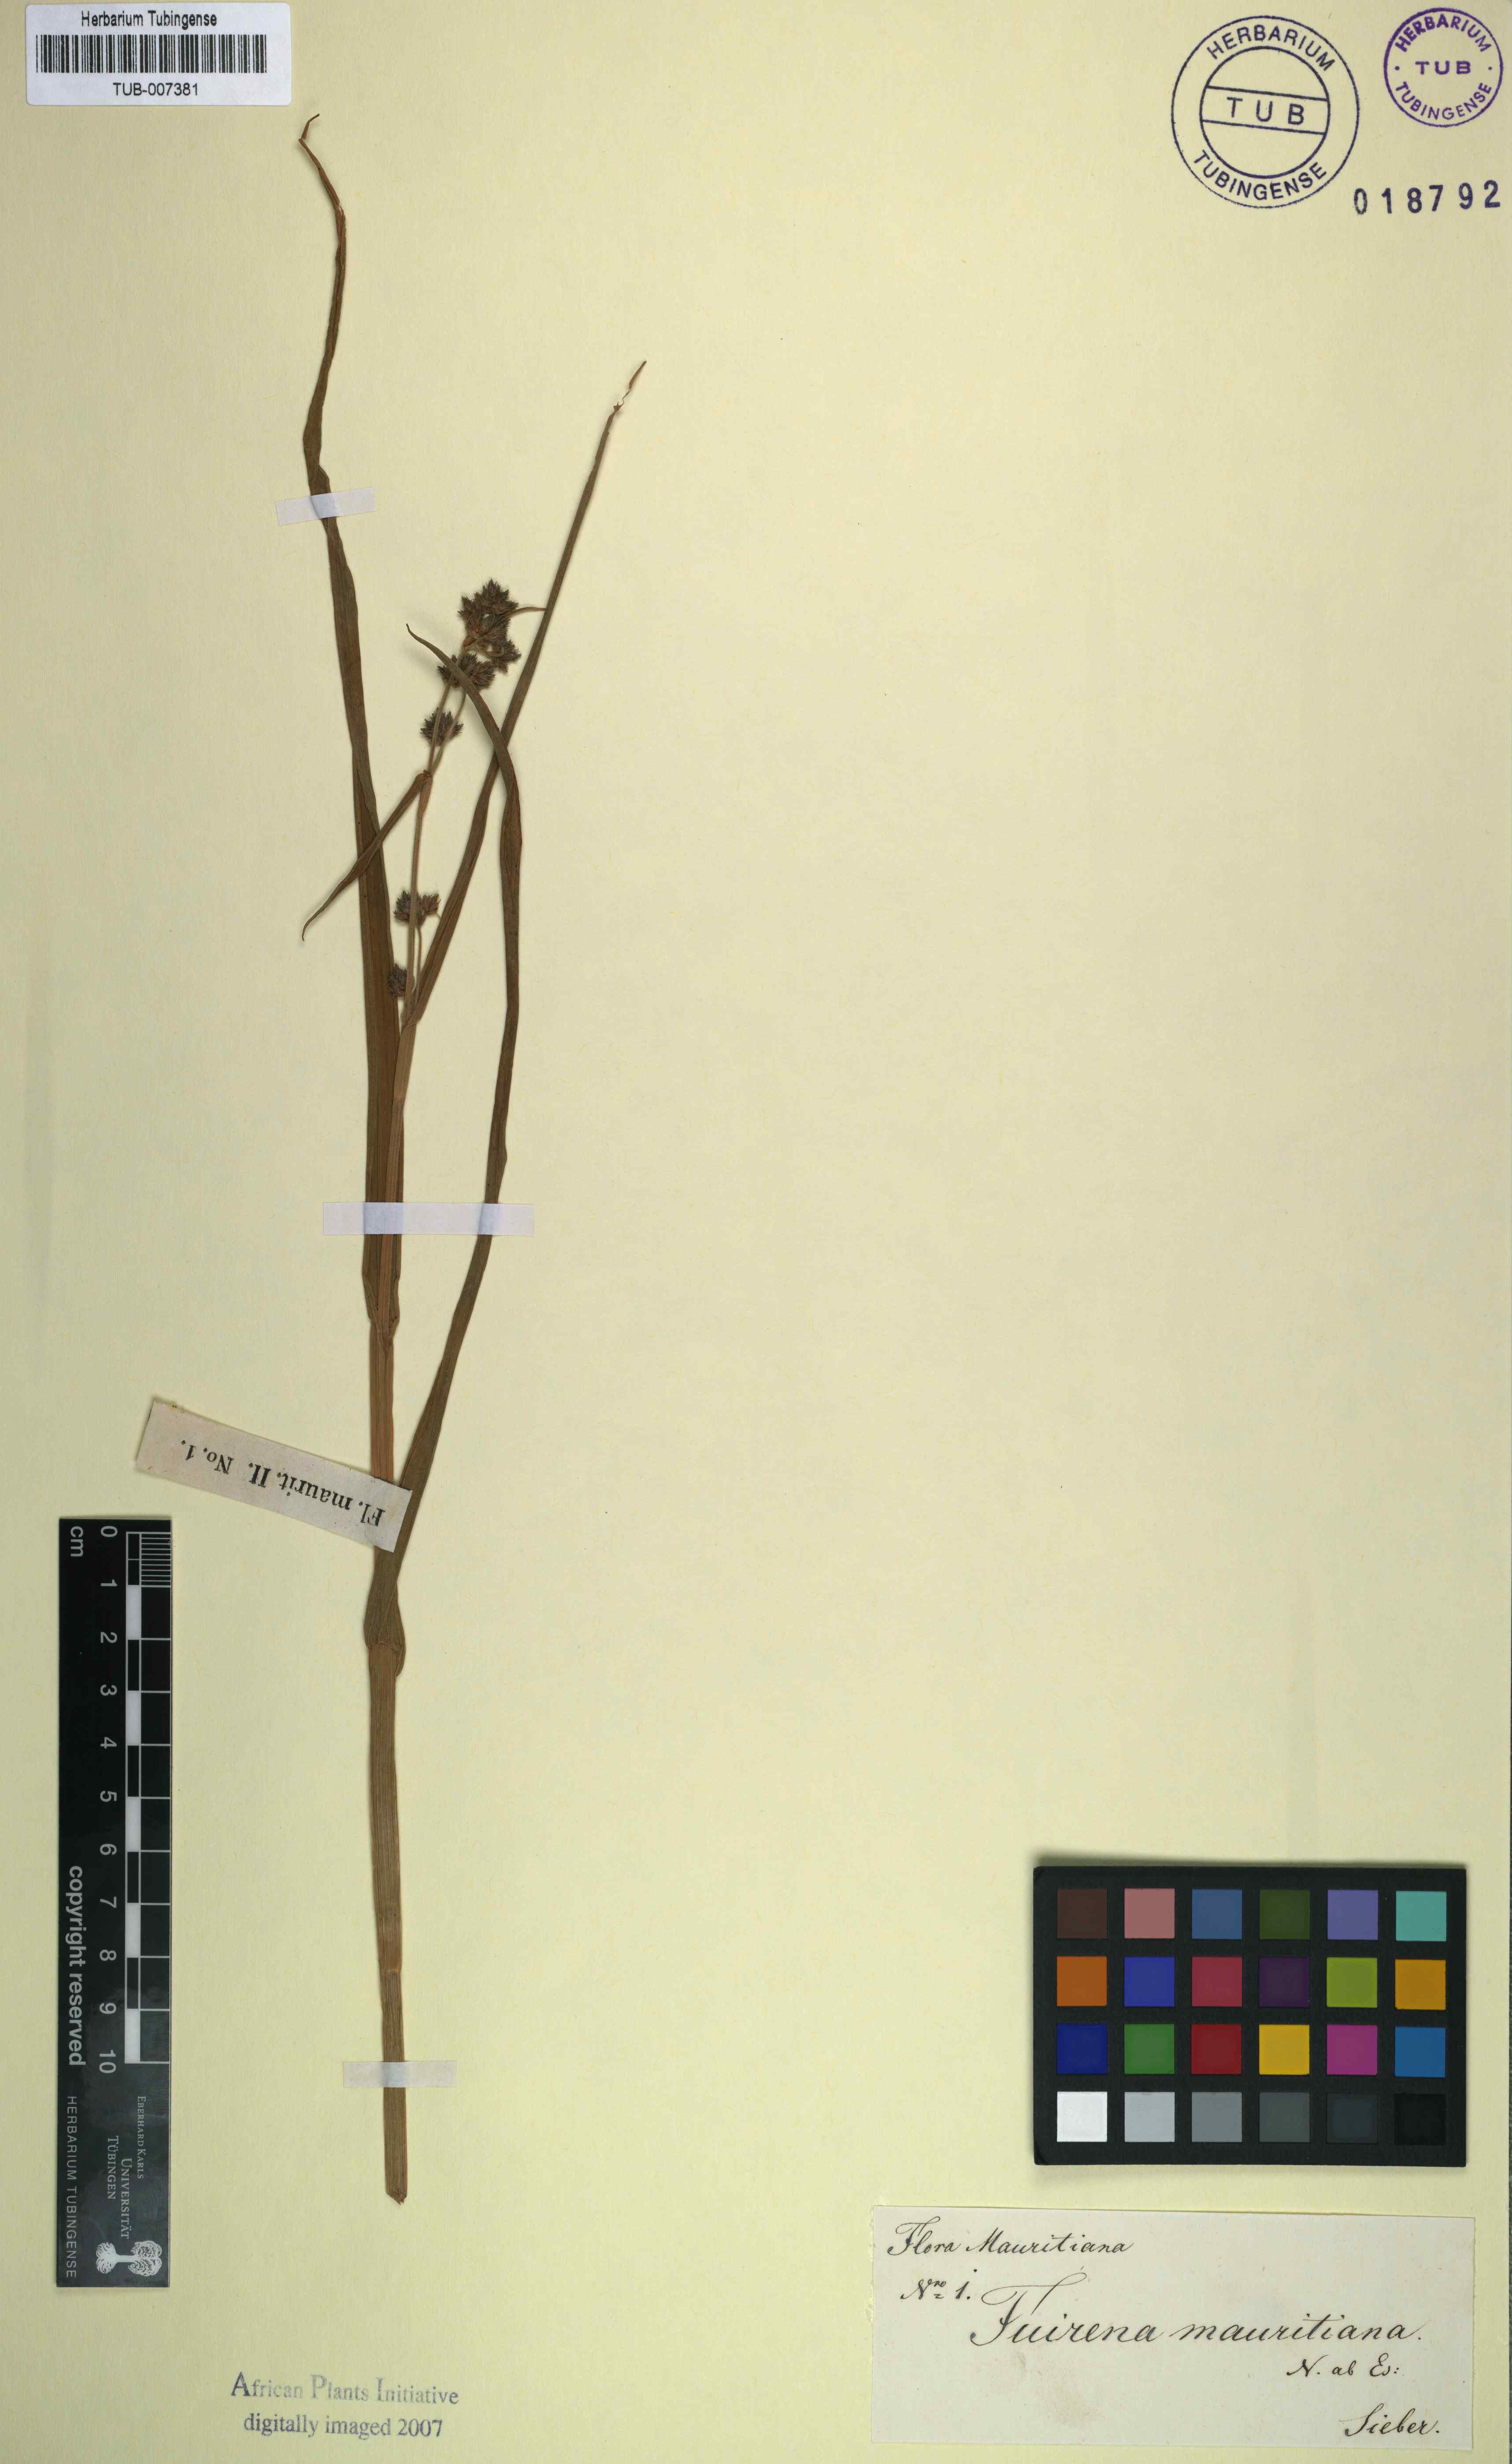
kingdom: Plantae
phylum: Tracheophyta
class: Liliopsida
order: Poales
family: Cyperaceae
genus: Fuirena
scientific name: Fuirena umbellata
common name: Yefen
